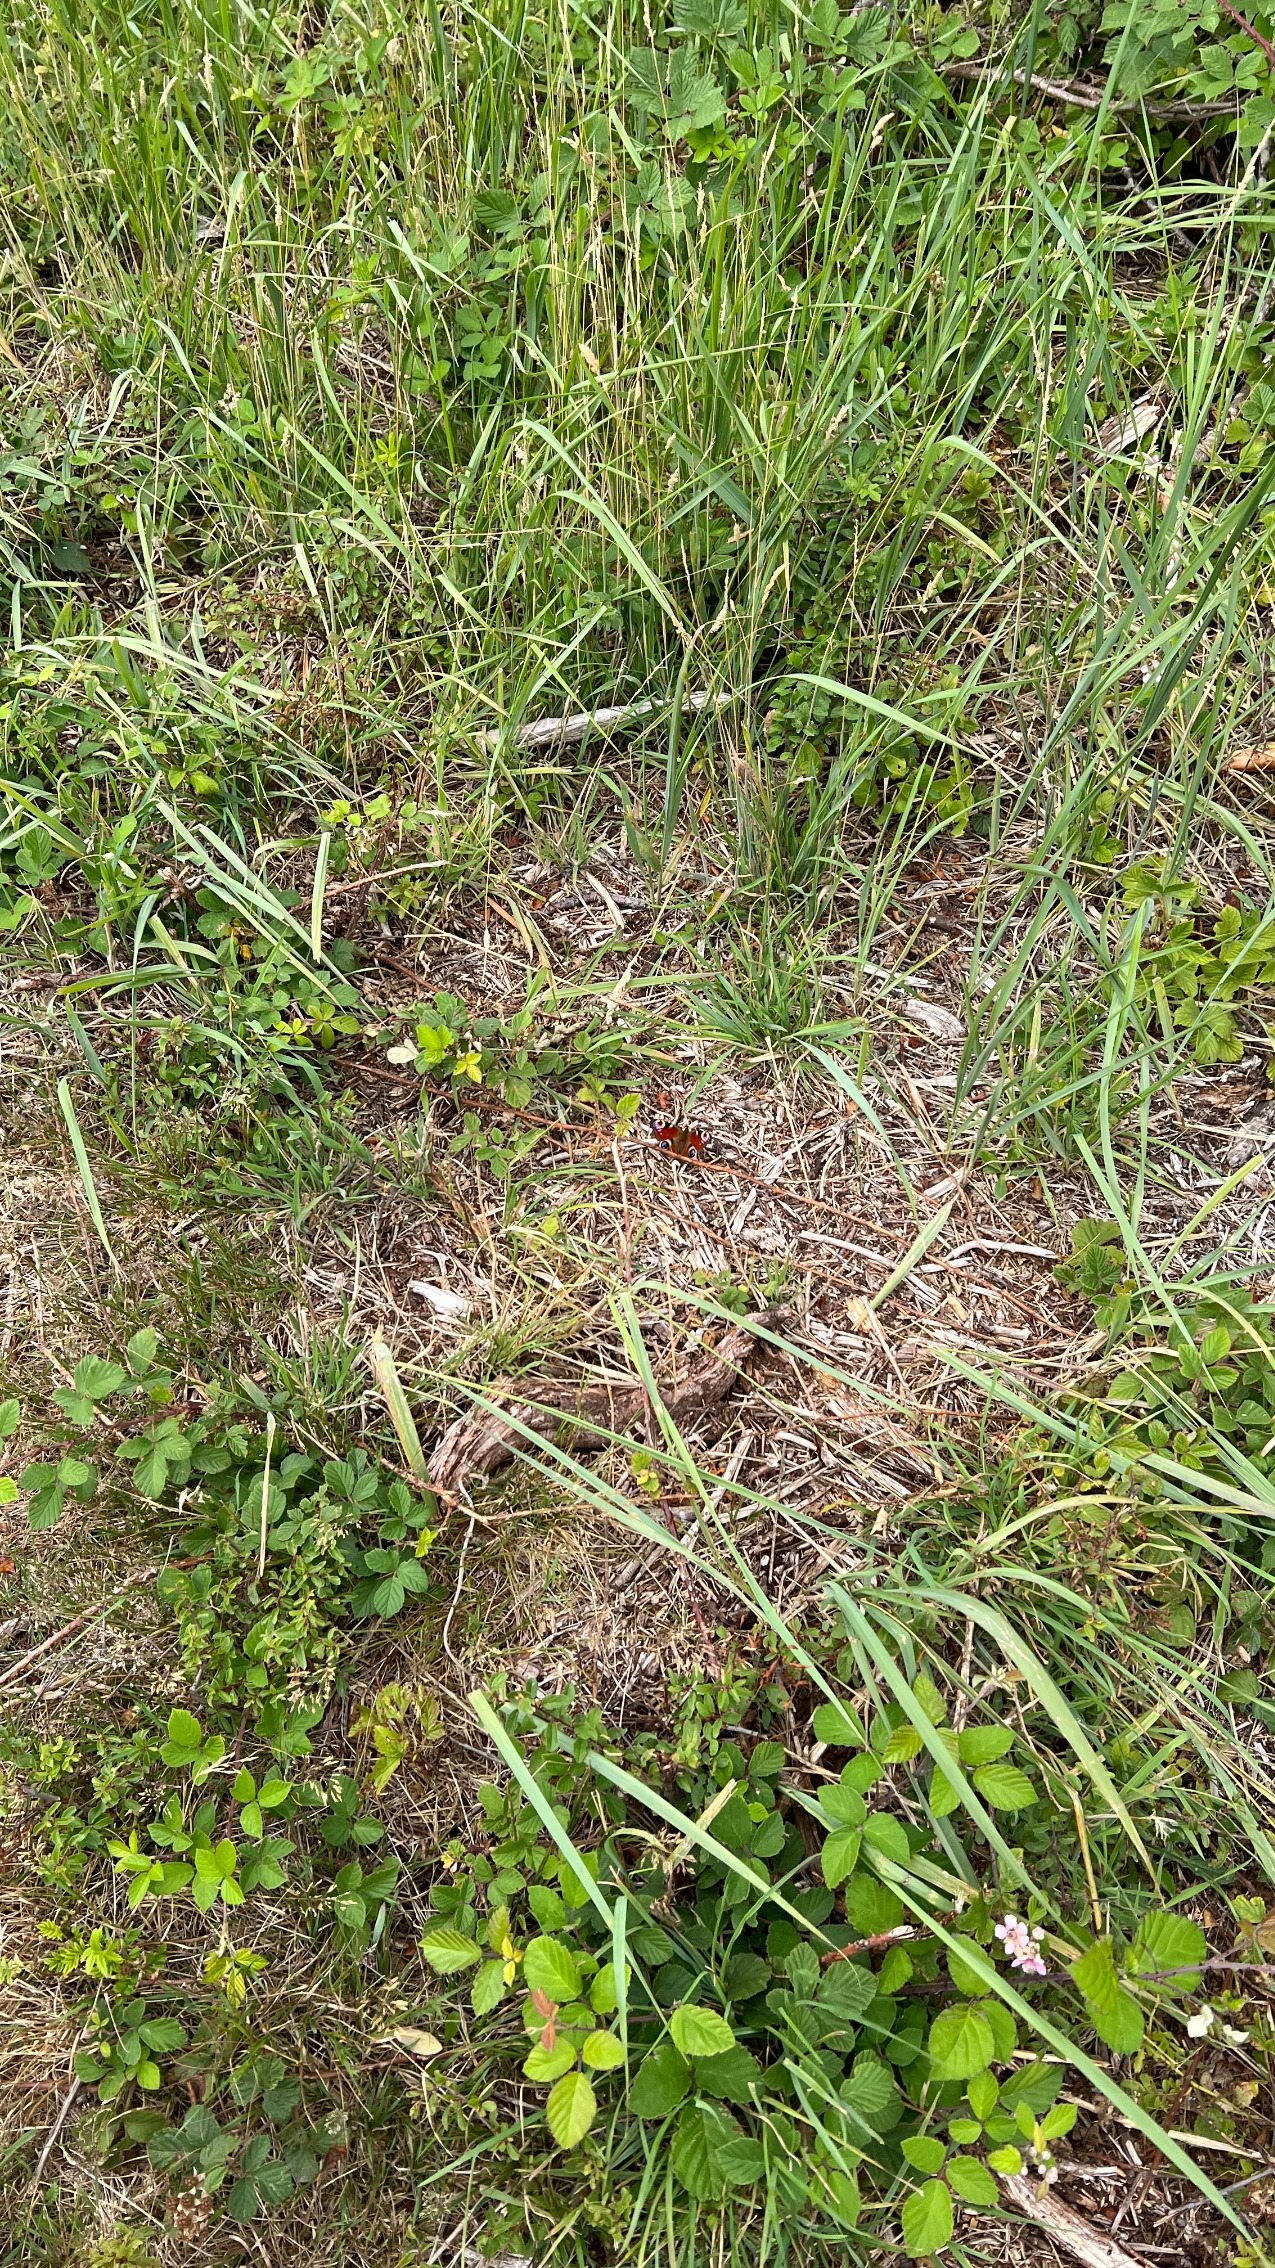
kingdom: Animalia
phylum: Arthropoda
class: Insecta
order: Lepidoptera
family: Nymphalidae
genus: Aglais
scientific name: Aglais io
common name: Dagpåfugleøje
